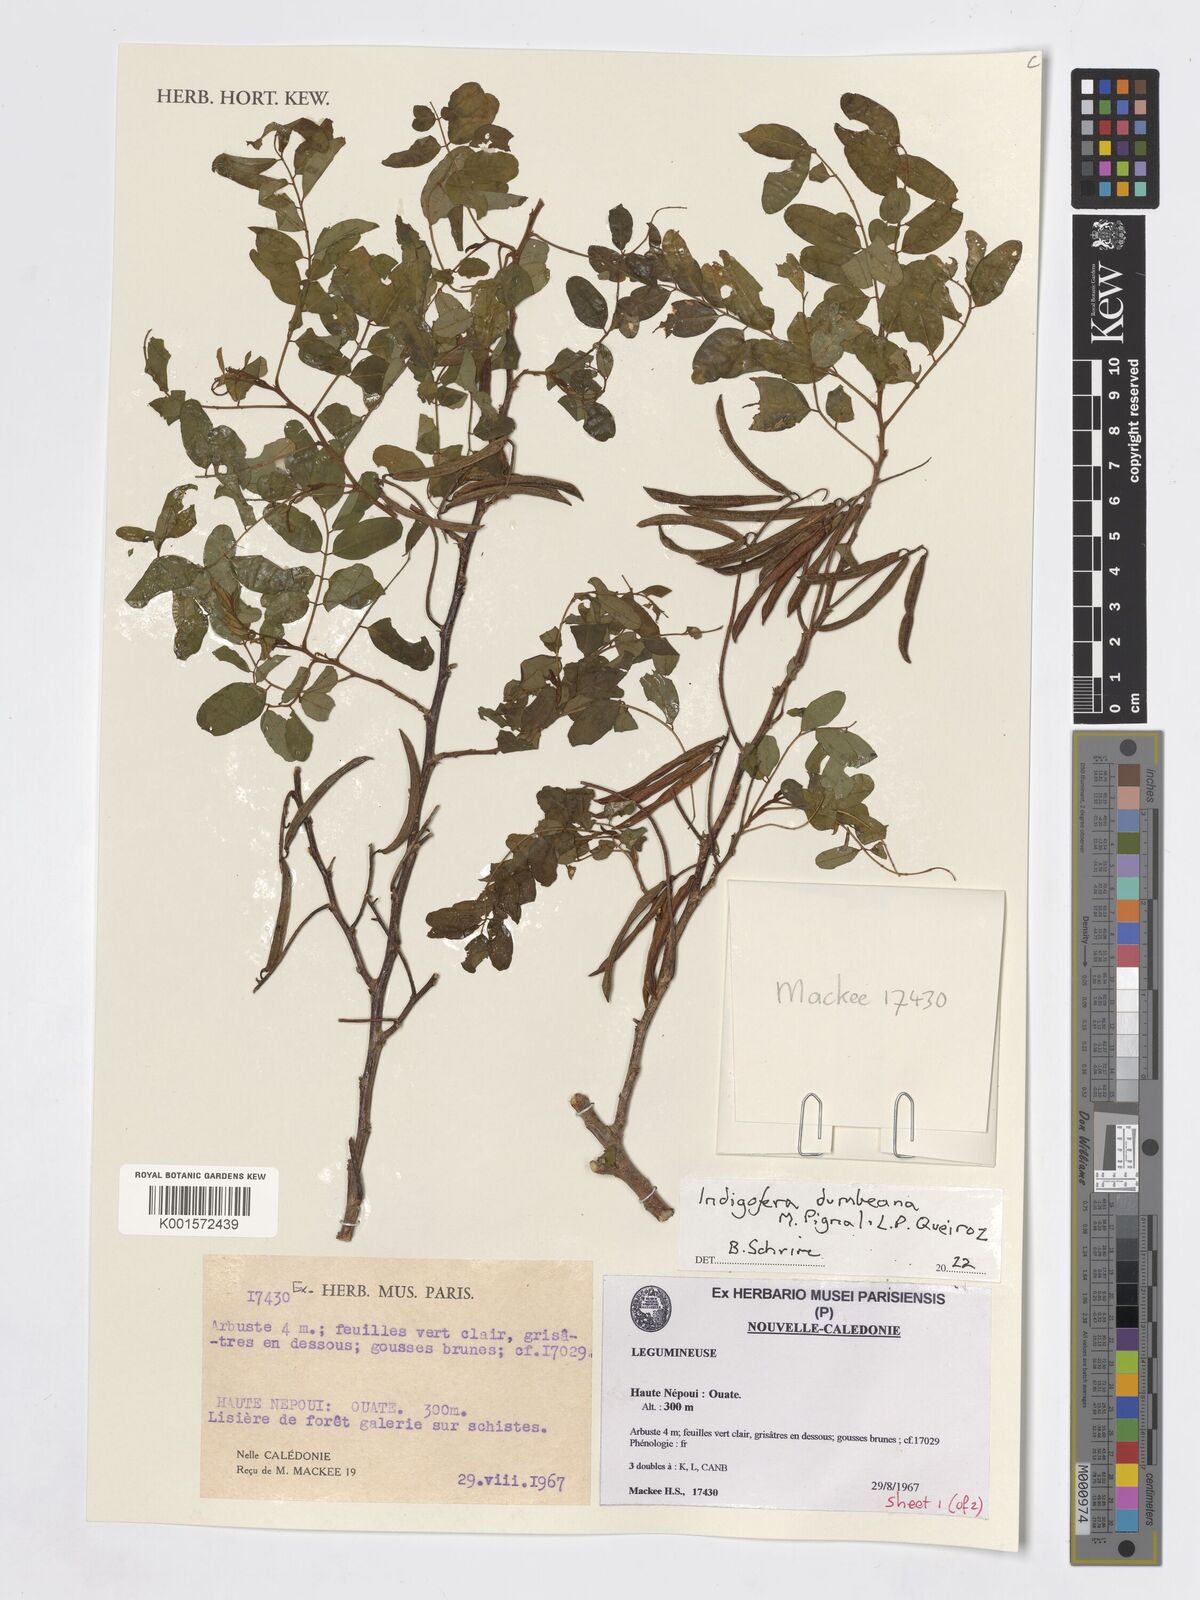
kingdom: Plantae
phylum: Tracheophyta
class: Magnoliopsida
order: Fabales
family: Fabaceae
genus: Indigofera
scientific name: Indigofera dumbeana
